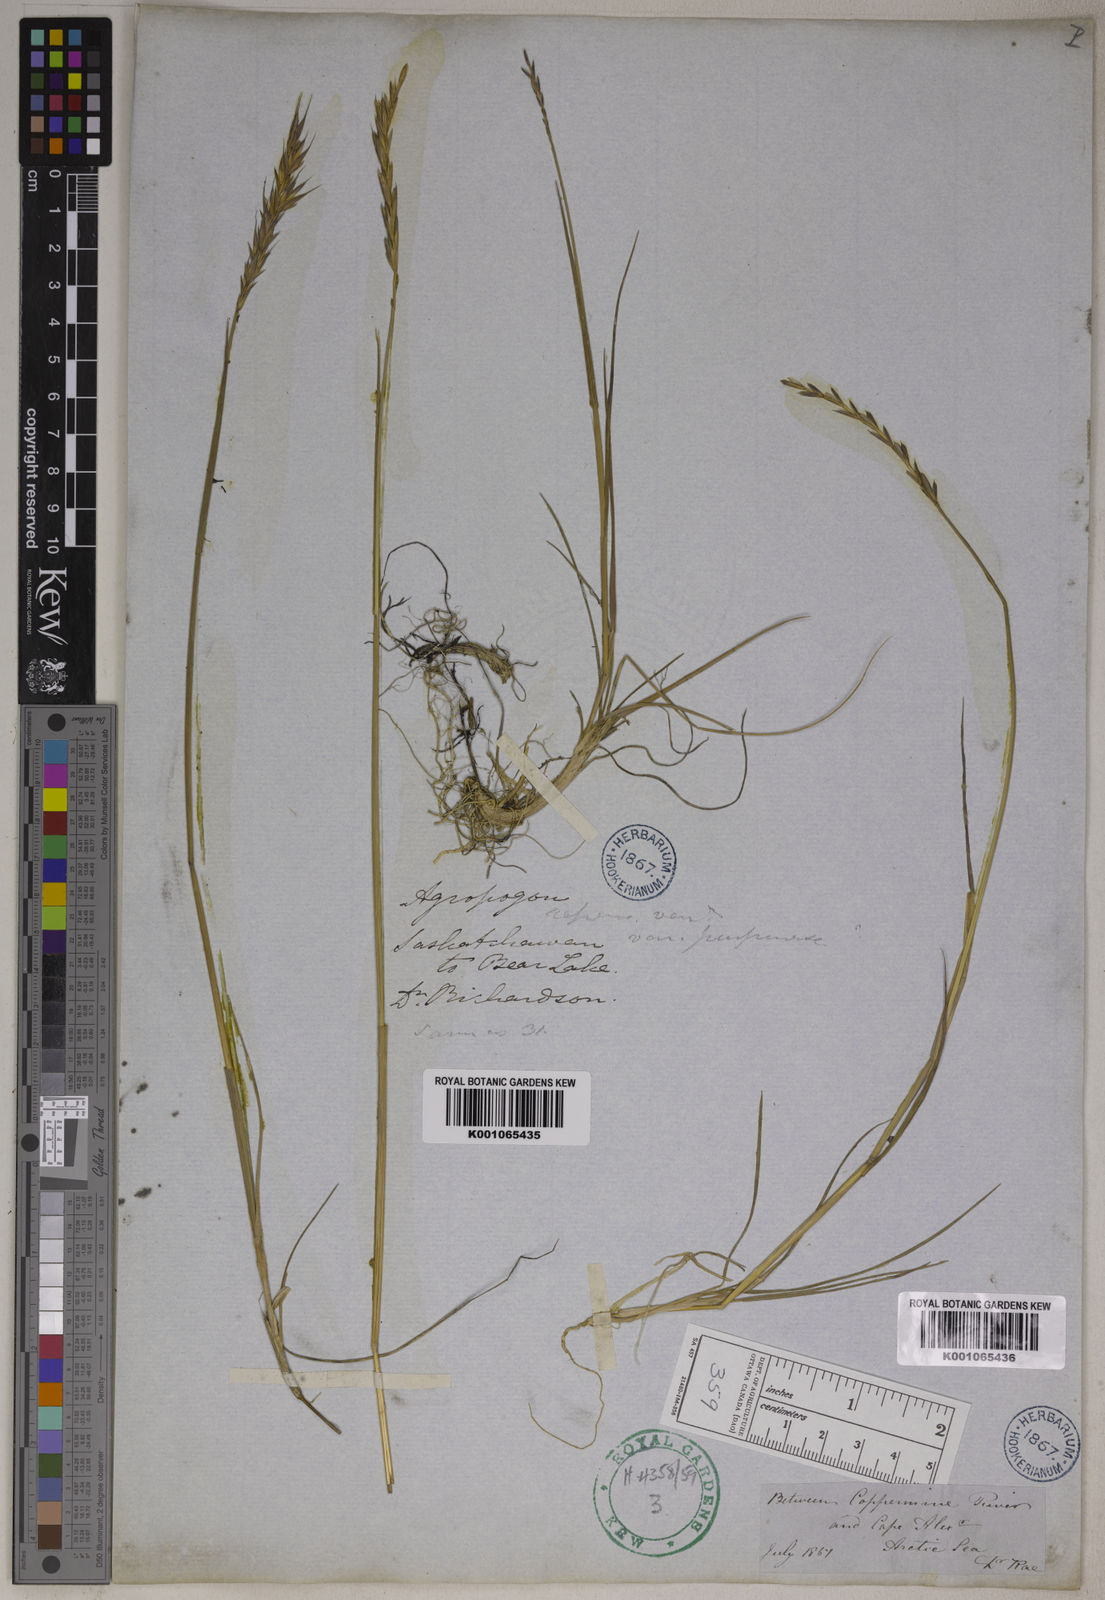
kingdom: Plantae
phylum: Tracheophyta
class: Liliopsida
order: Poales
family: Poaceae
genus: Elymus
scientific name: Elymus repens
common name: Quackgrass
